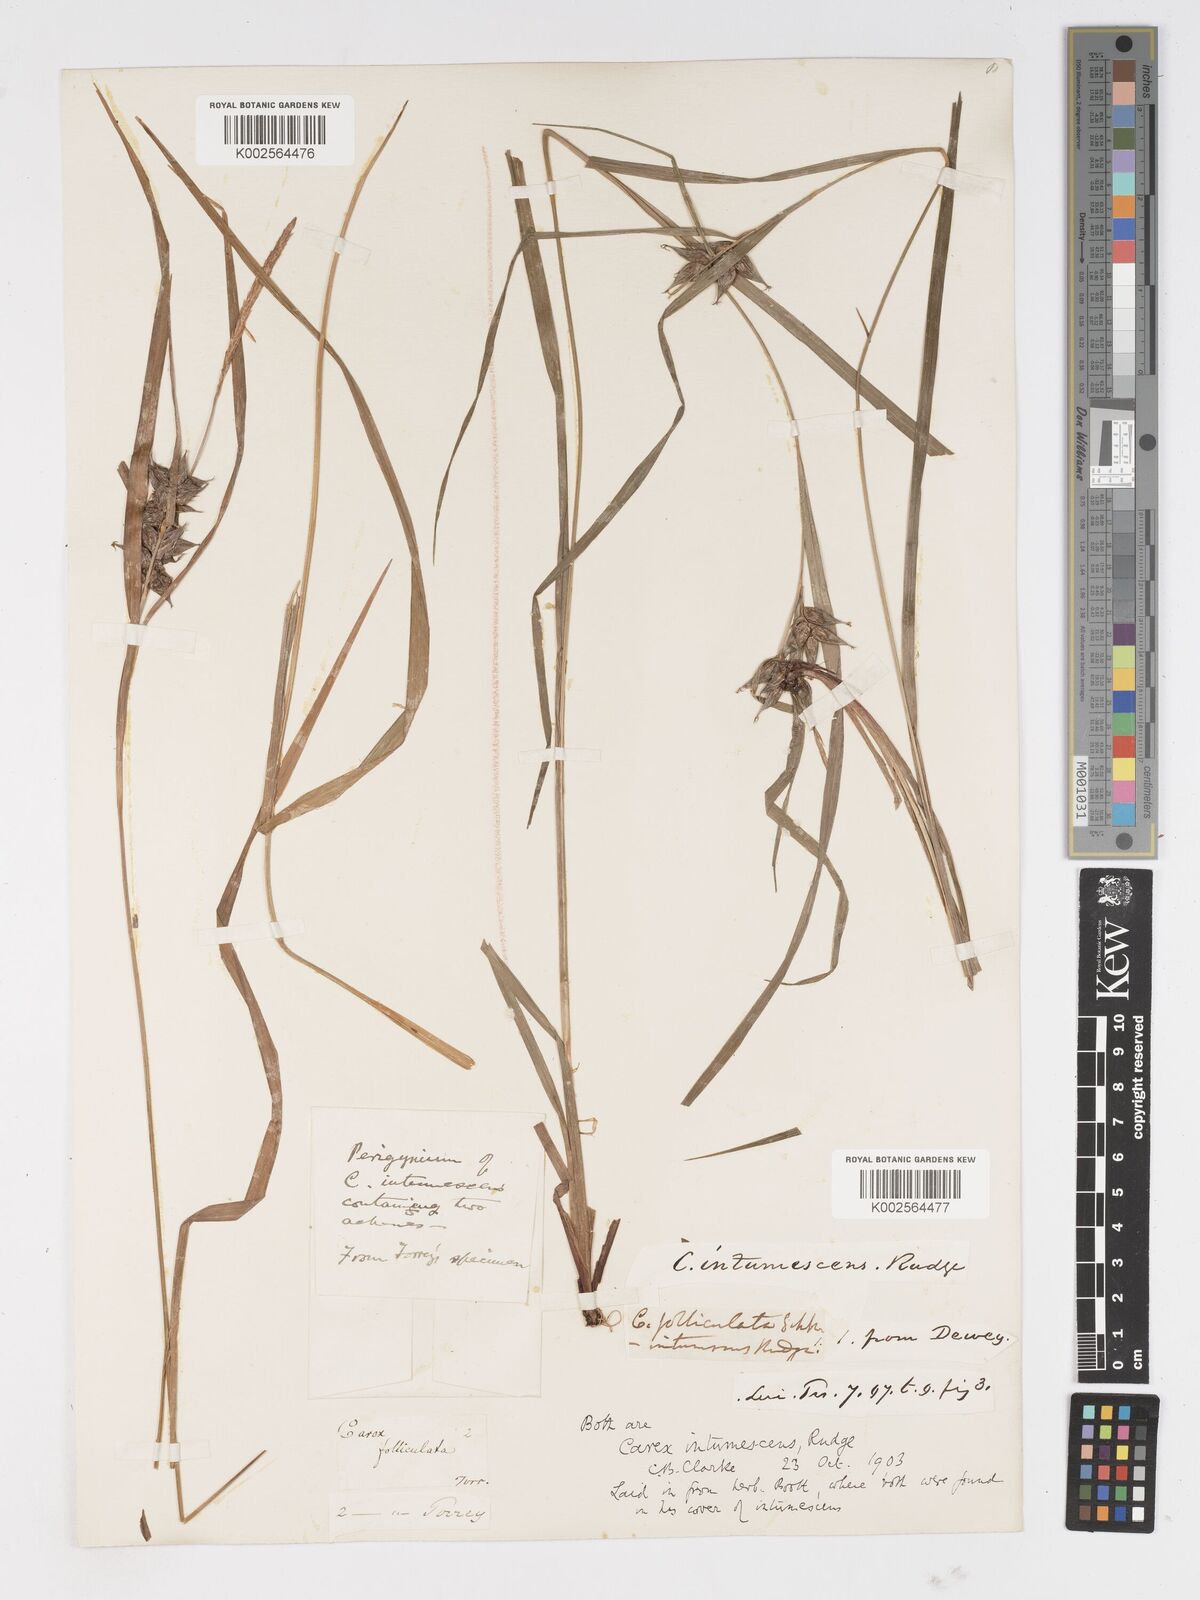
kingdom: Plantae
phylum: Tracheophyta
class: Liliopsida
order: Poales
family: Cyperaceae
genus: Carex
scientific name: Carex intumescens
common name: Greater bladder sedge
